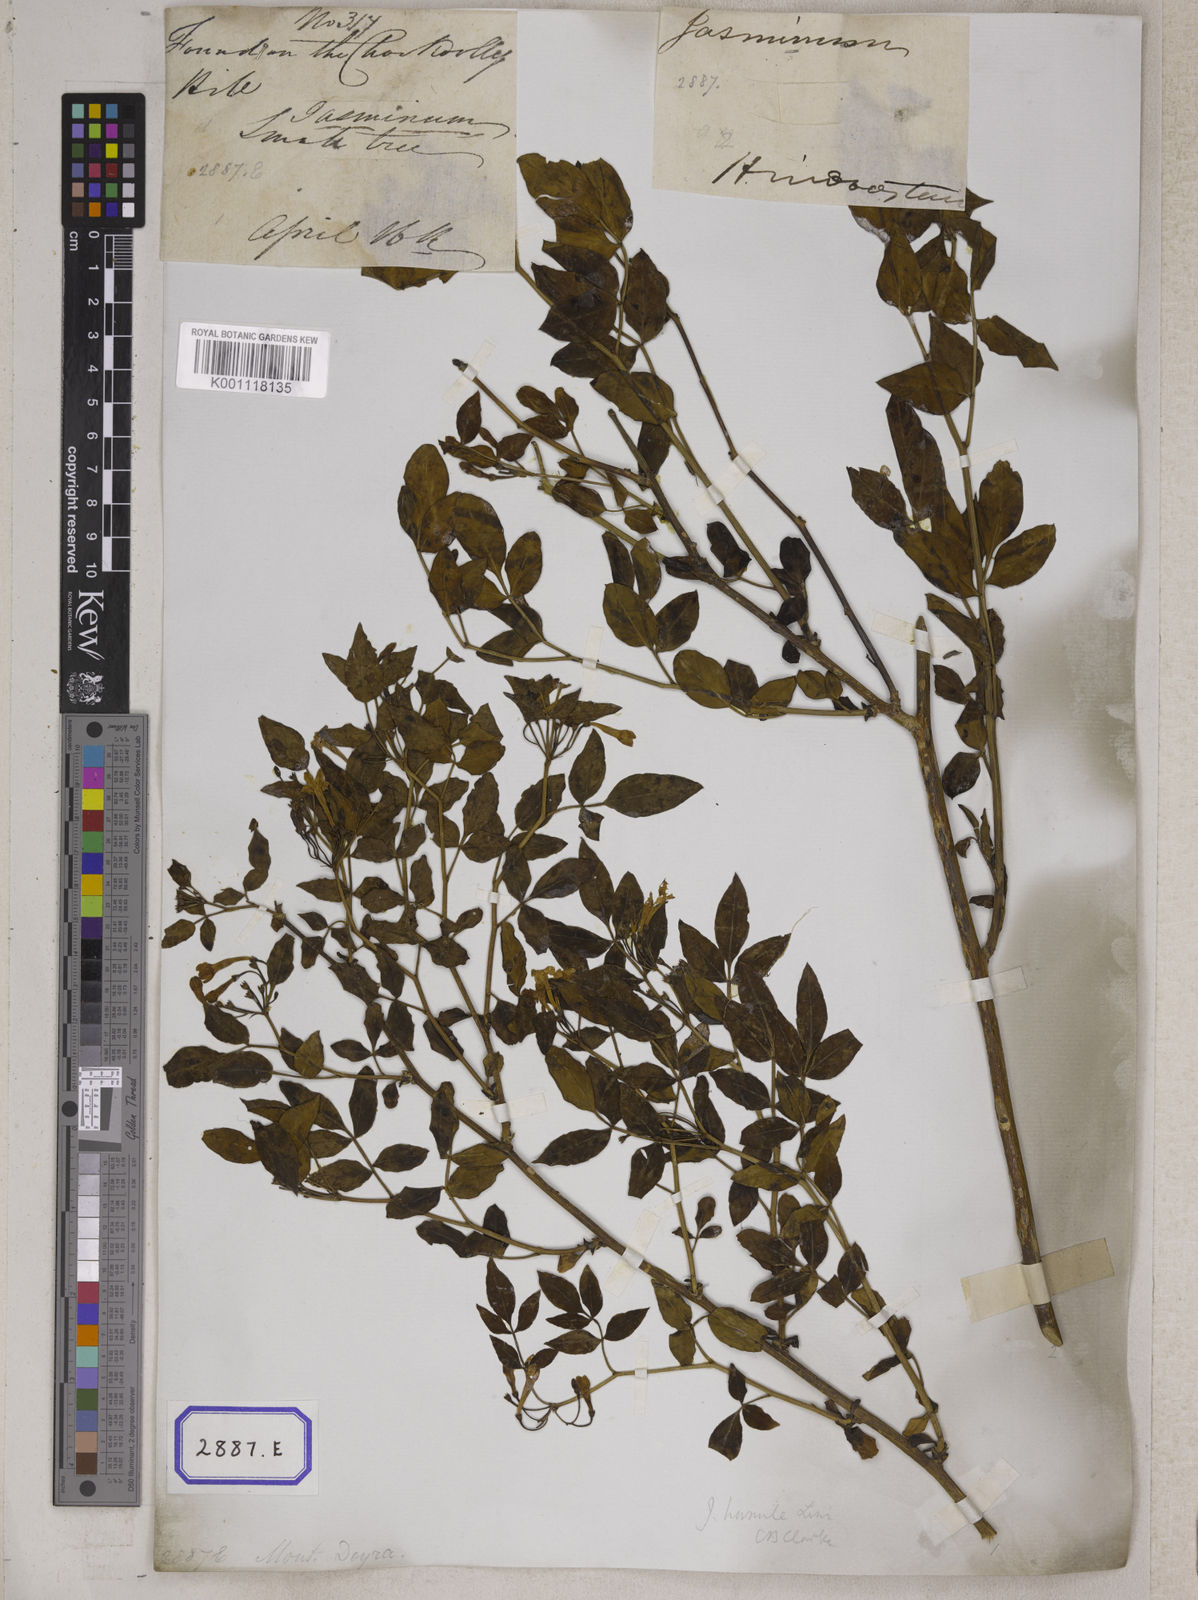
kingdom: Plantae
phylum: Tracheophyta
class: Magnoliopsida
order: Lamiales
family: Oleaceae
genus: Chrysojasminum
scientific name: Chrysojasminum humile
